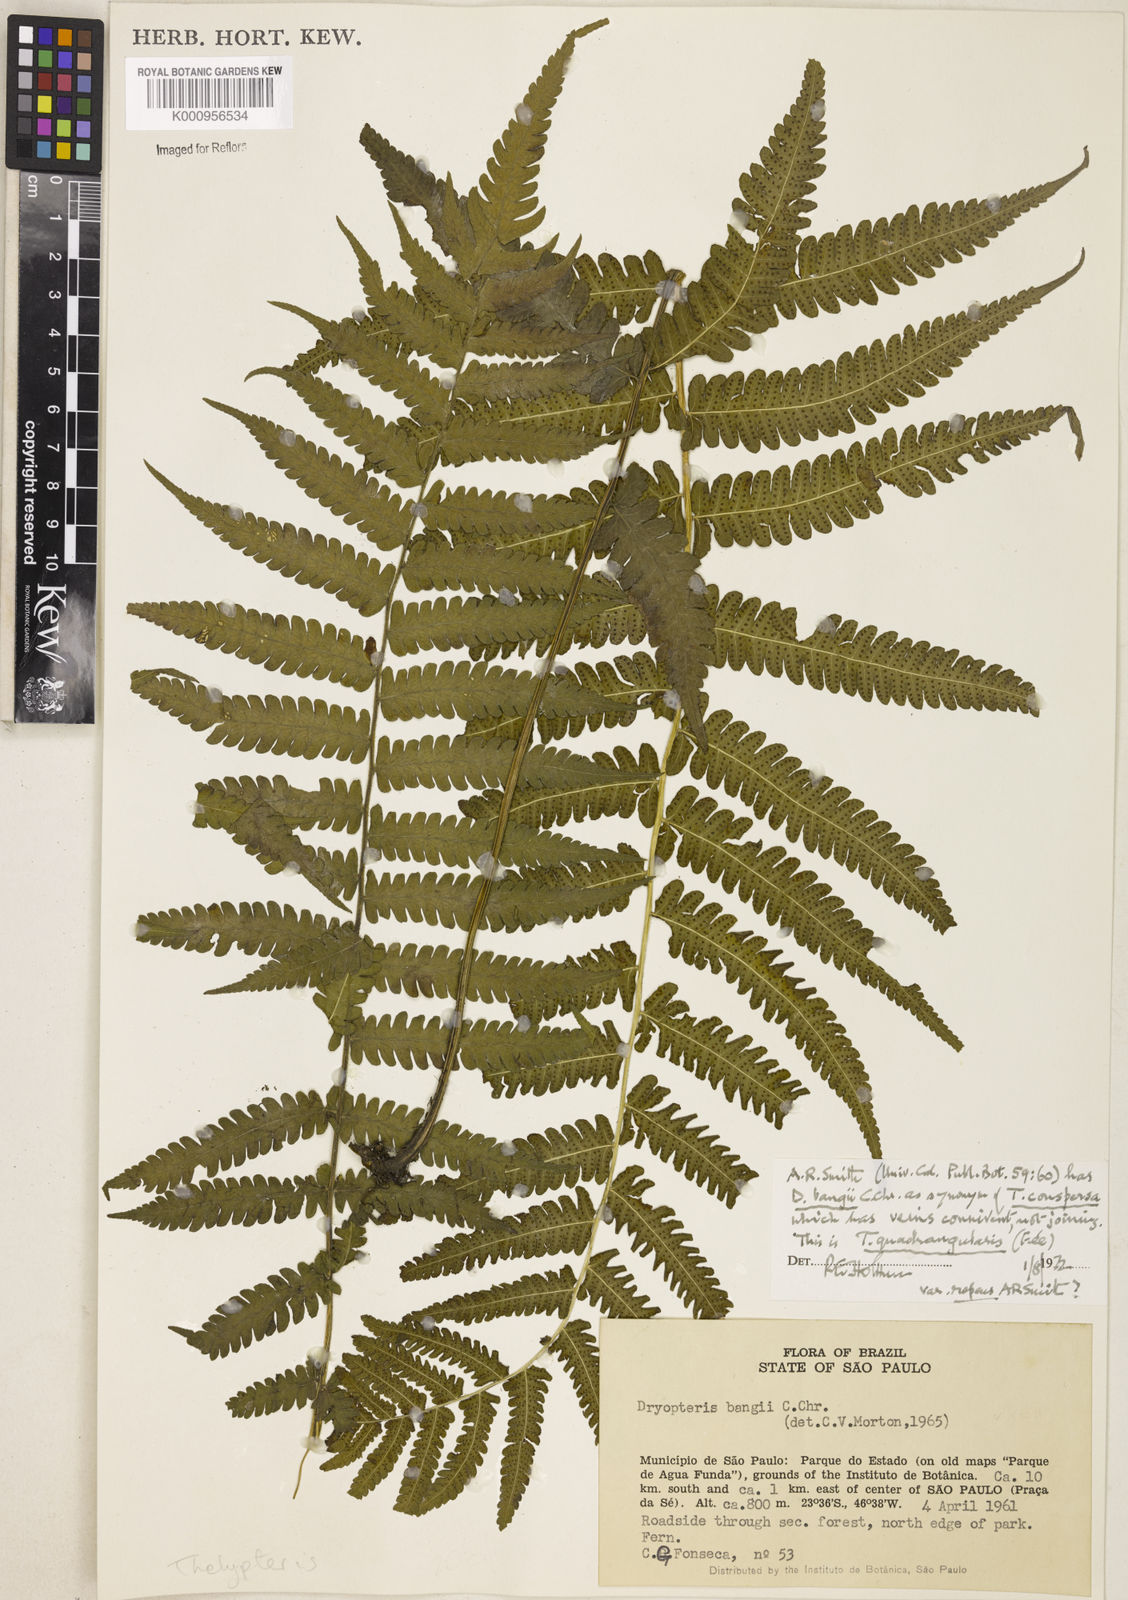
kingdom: Plantae
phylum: Tracheophyta
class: Polypodiopsida
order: Polypodiales
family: Thelypteridaceae
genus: Christella
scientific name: Christella hispidula
